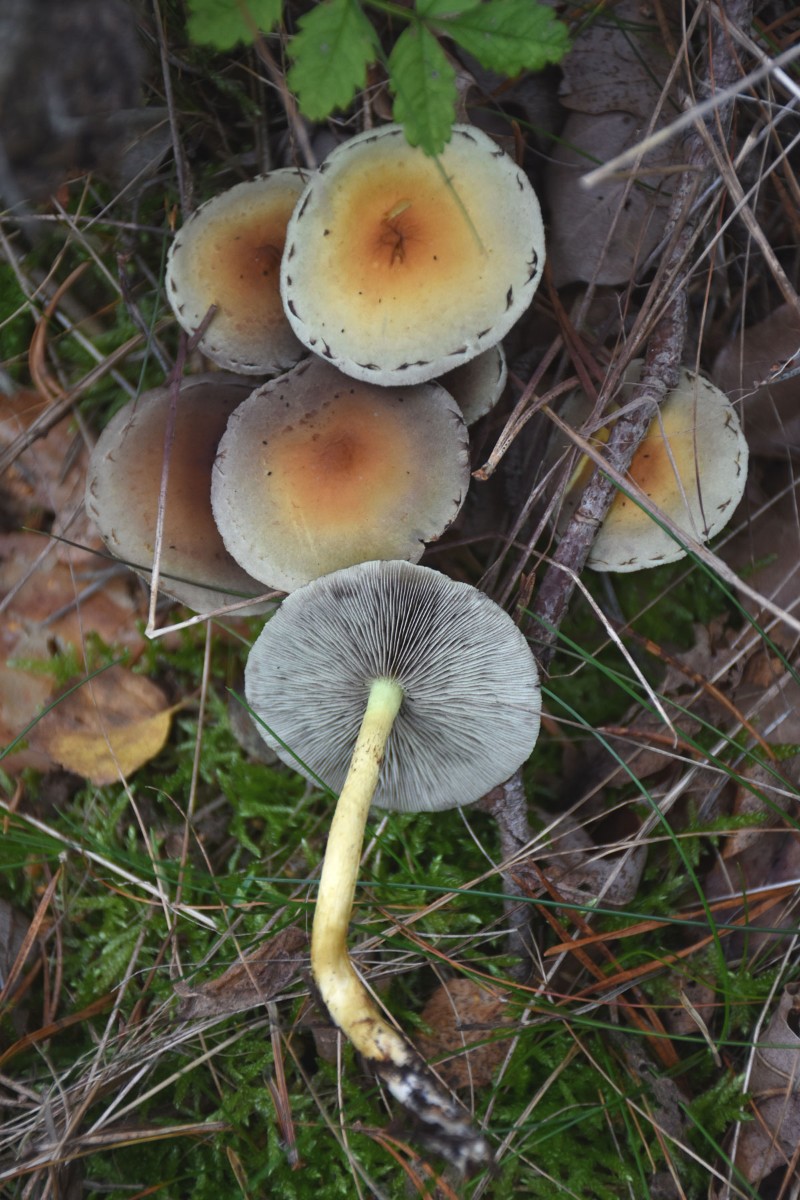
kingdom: Fungi
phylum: Basidiomycota
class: Agaricomycetes
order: Agaricales
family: Strophariaceae
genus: Hypholoma
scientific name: Hypholoma fasciculare
